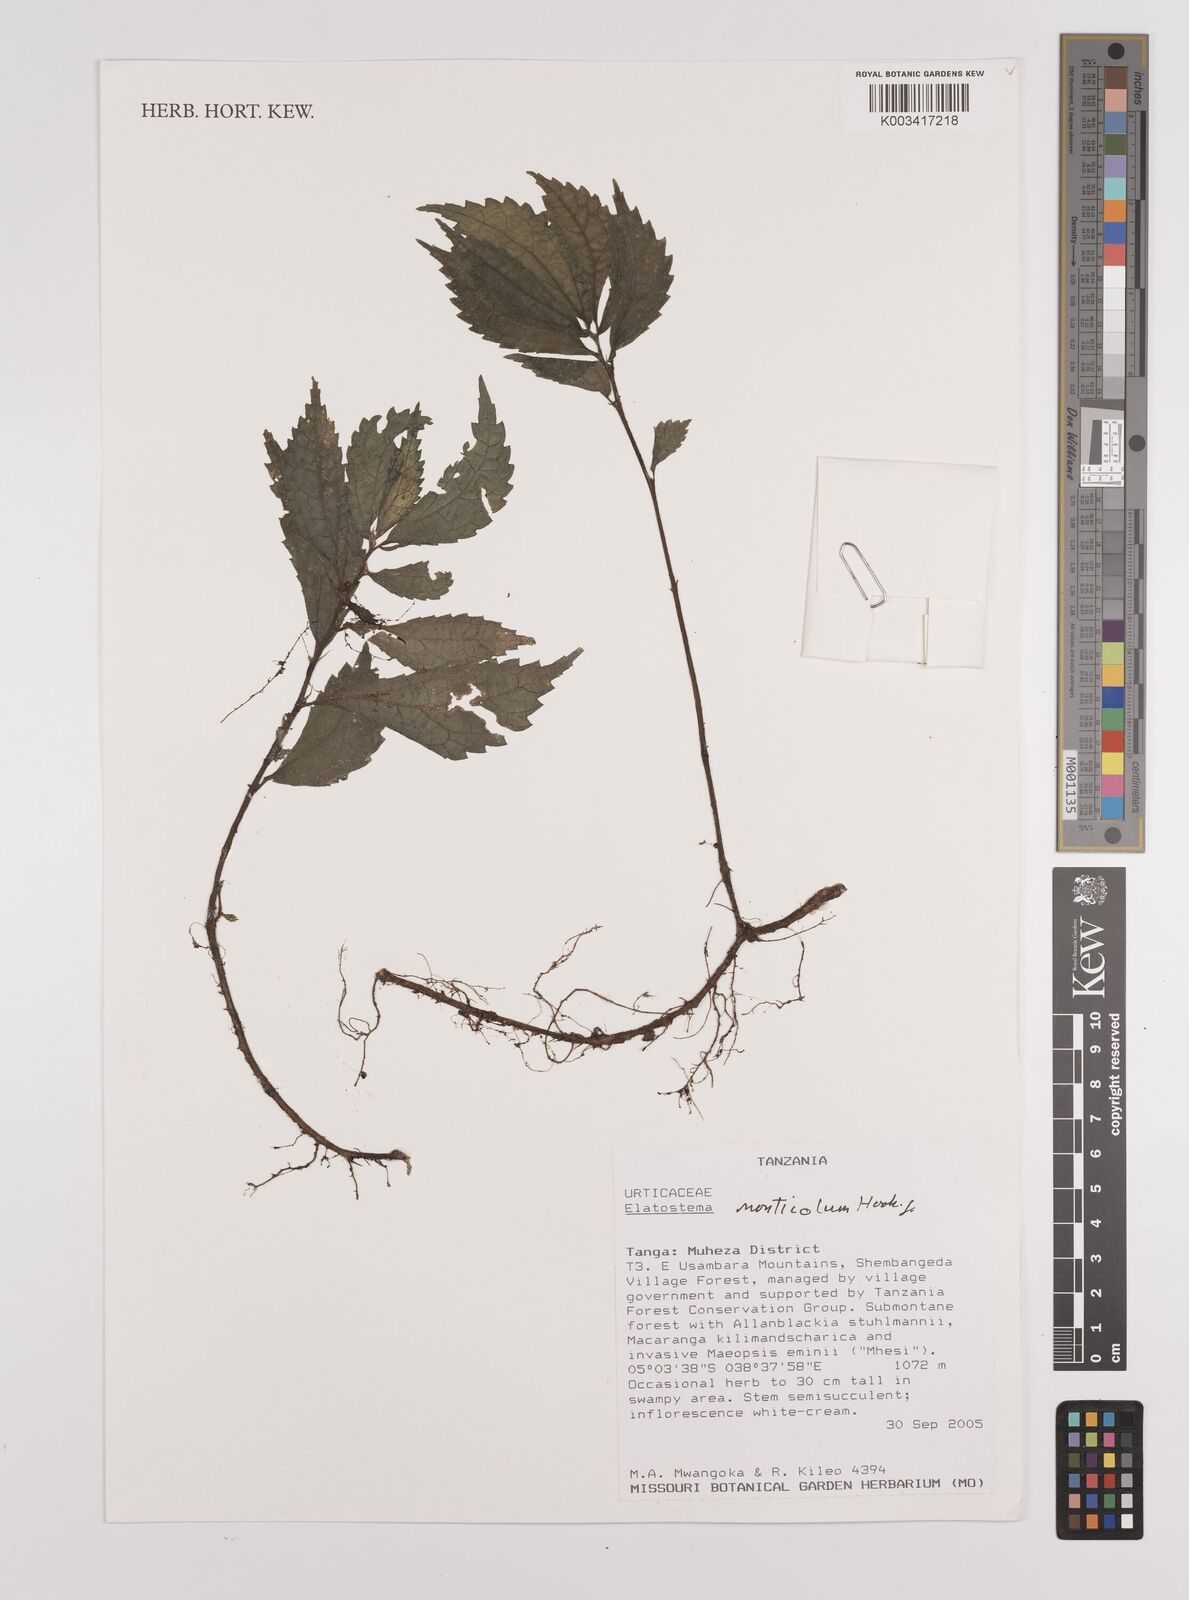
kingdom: Plantae
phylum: Tracheophyta
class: Magnoliopsida
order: Rosales
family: Urticaceae
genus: Elatostema
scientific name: Elatostema monticola
